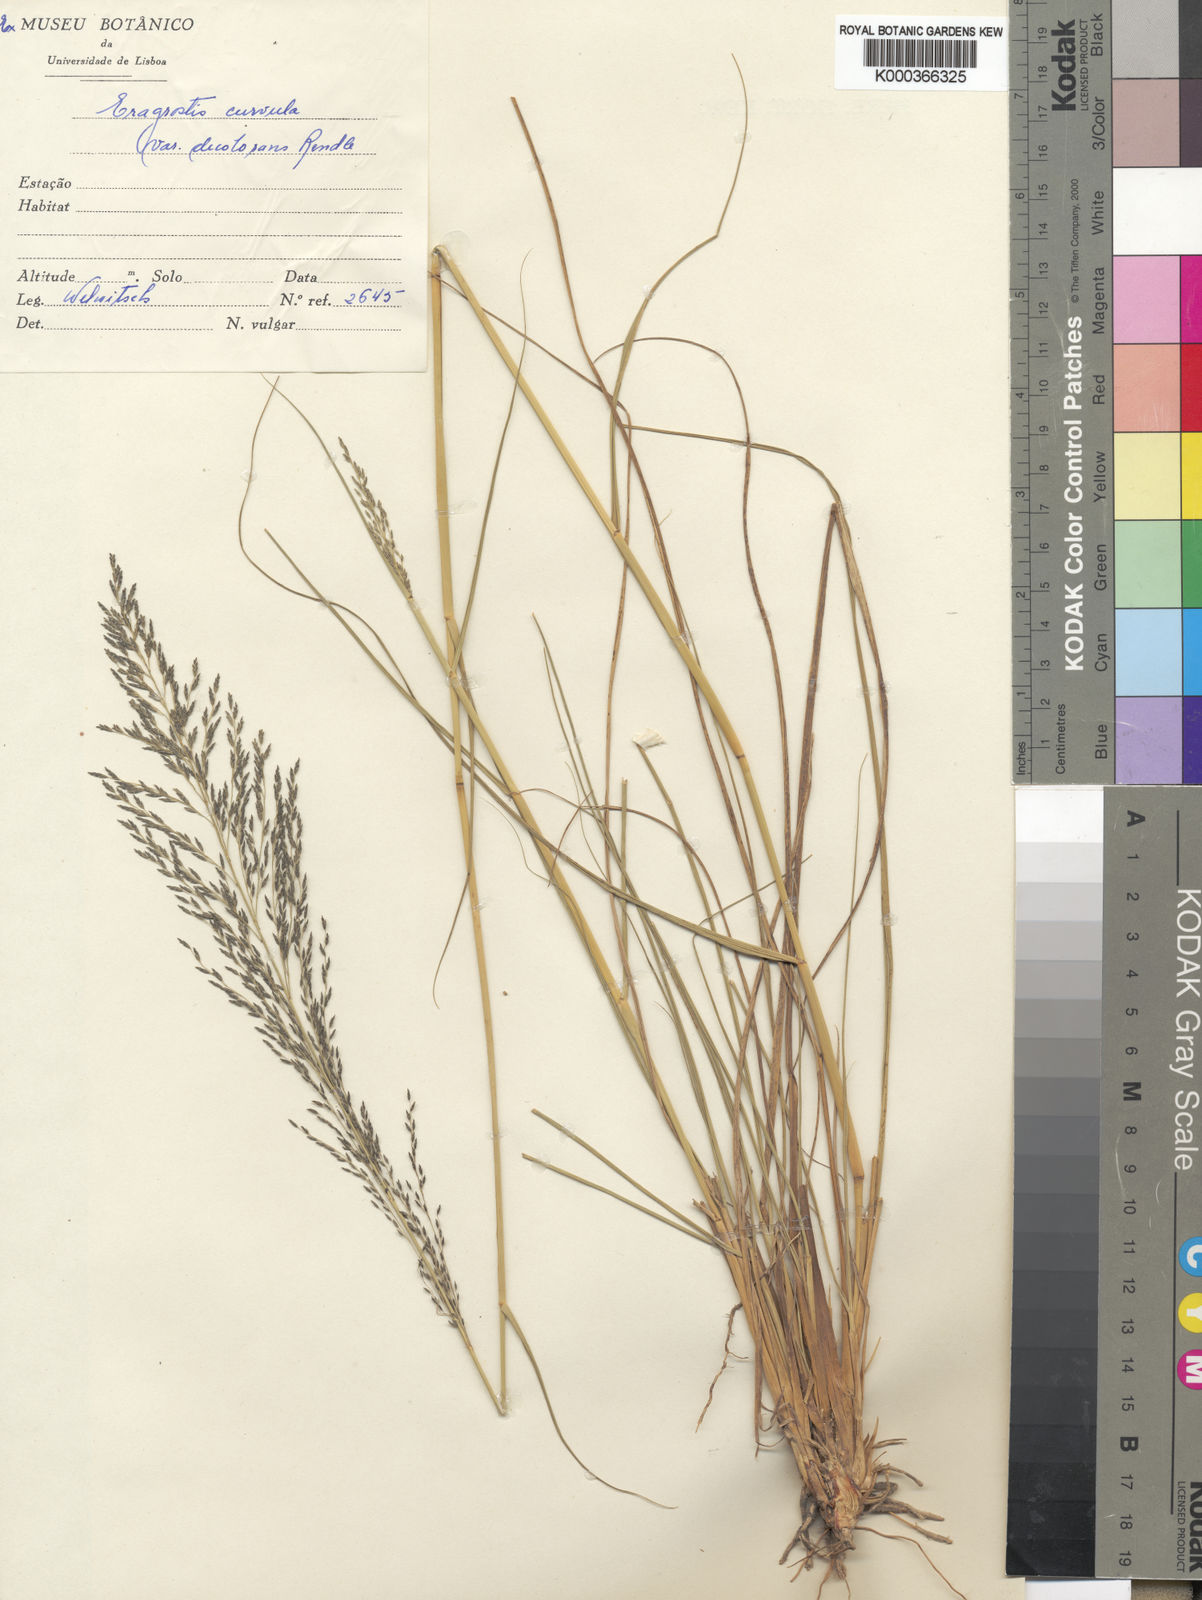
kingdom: Plantae
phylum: Tracheophyta
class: Liliopsida
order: Poales
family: Poaceae
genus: Eragrostis
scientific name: Eragrostis curvula
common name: African love-grass
